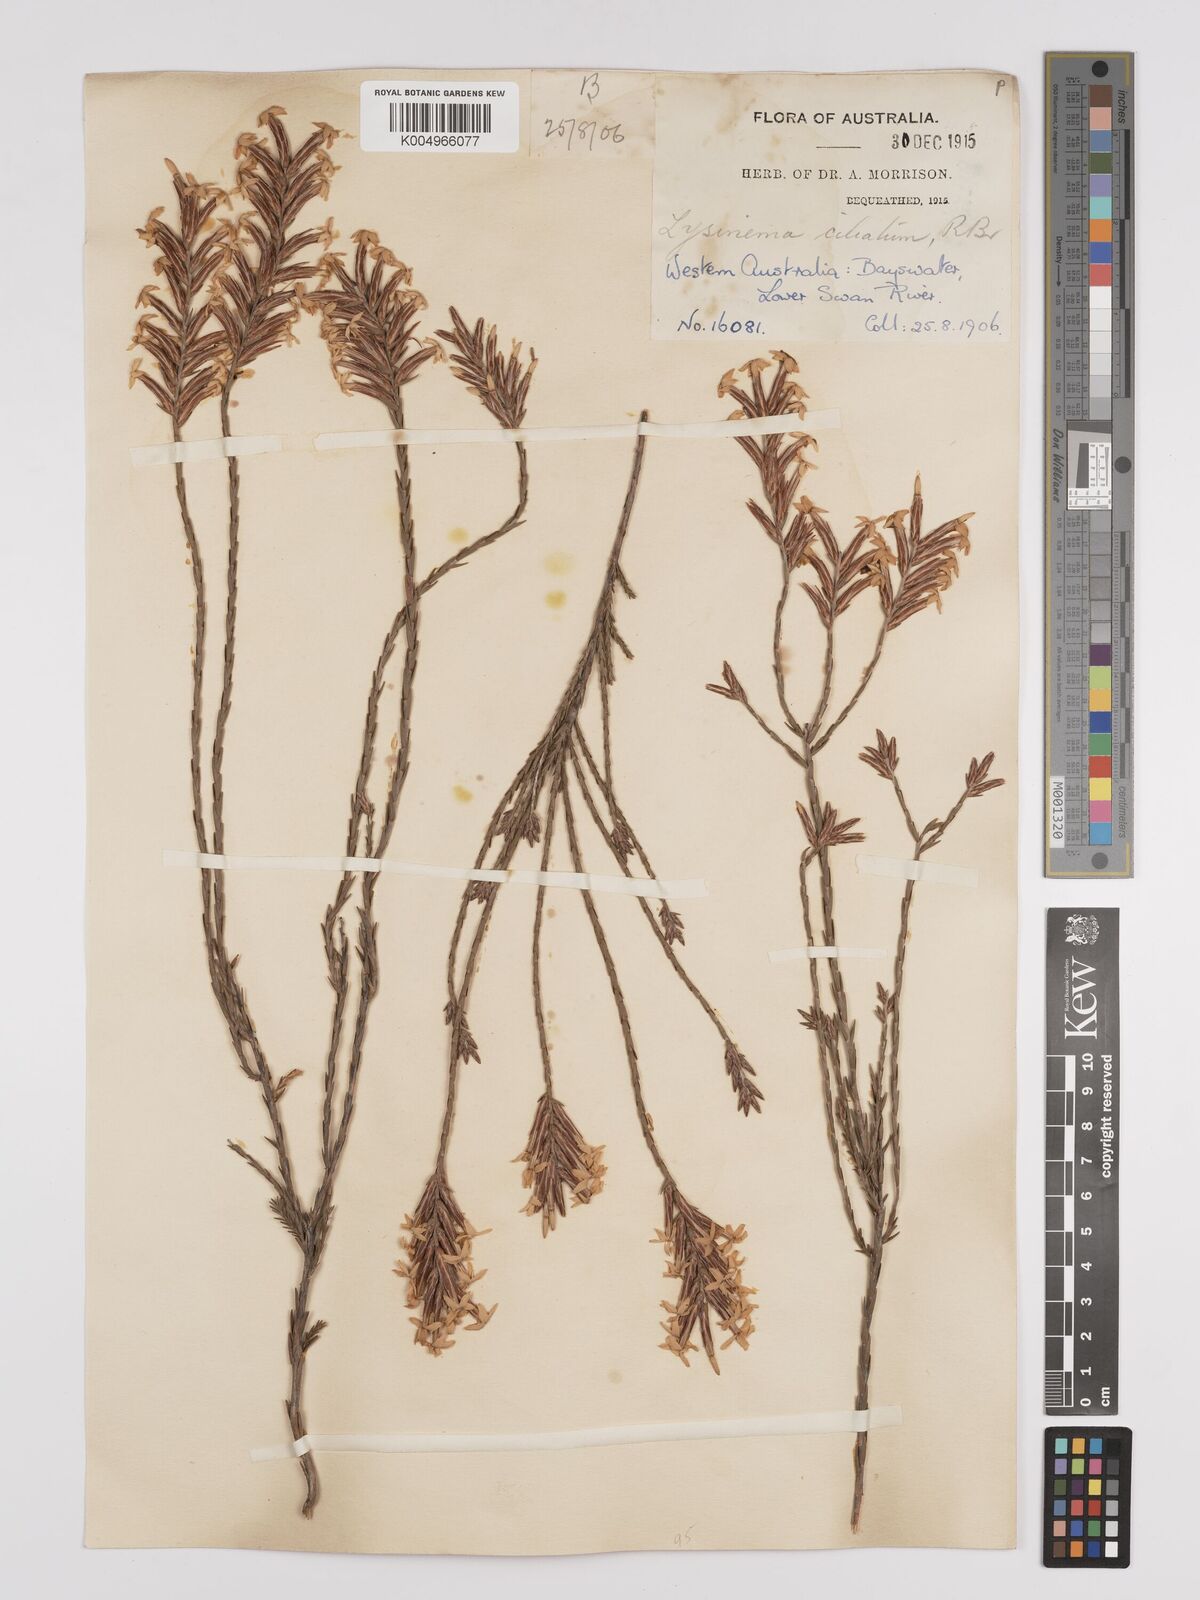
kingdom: Plantae
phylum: Tracheophyta
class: Magnoliopsida
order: Ericales
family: Ericaceae
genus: Lysinema
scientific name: Lysinema ciliatum
